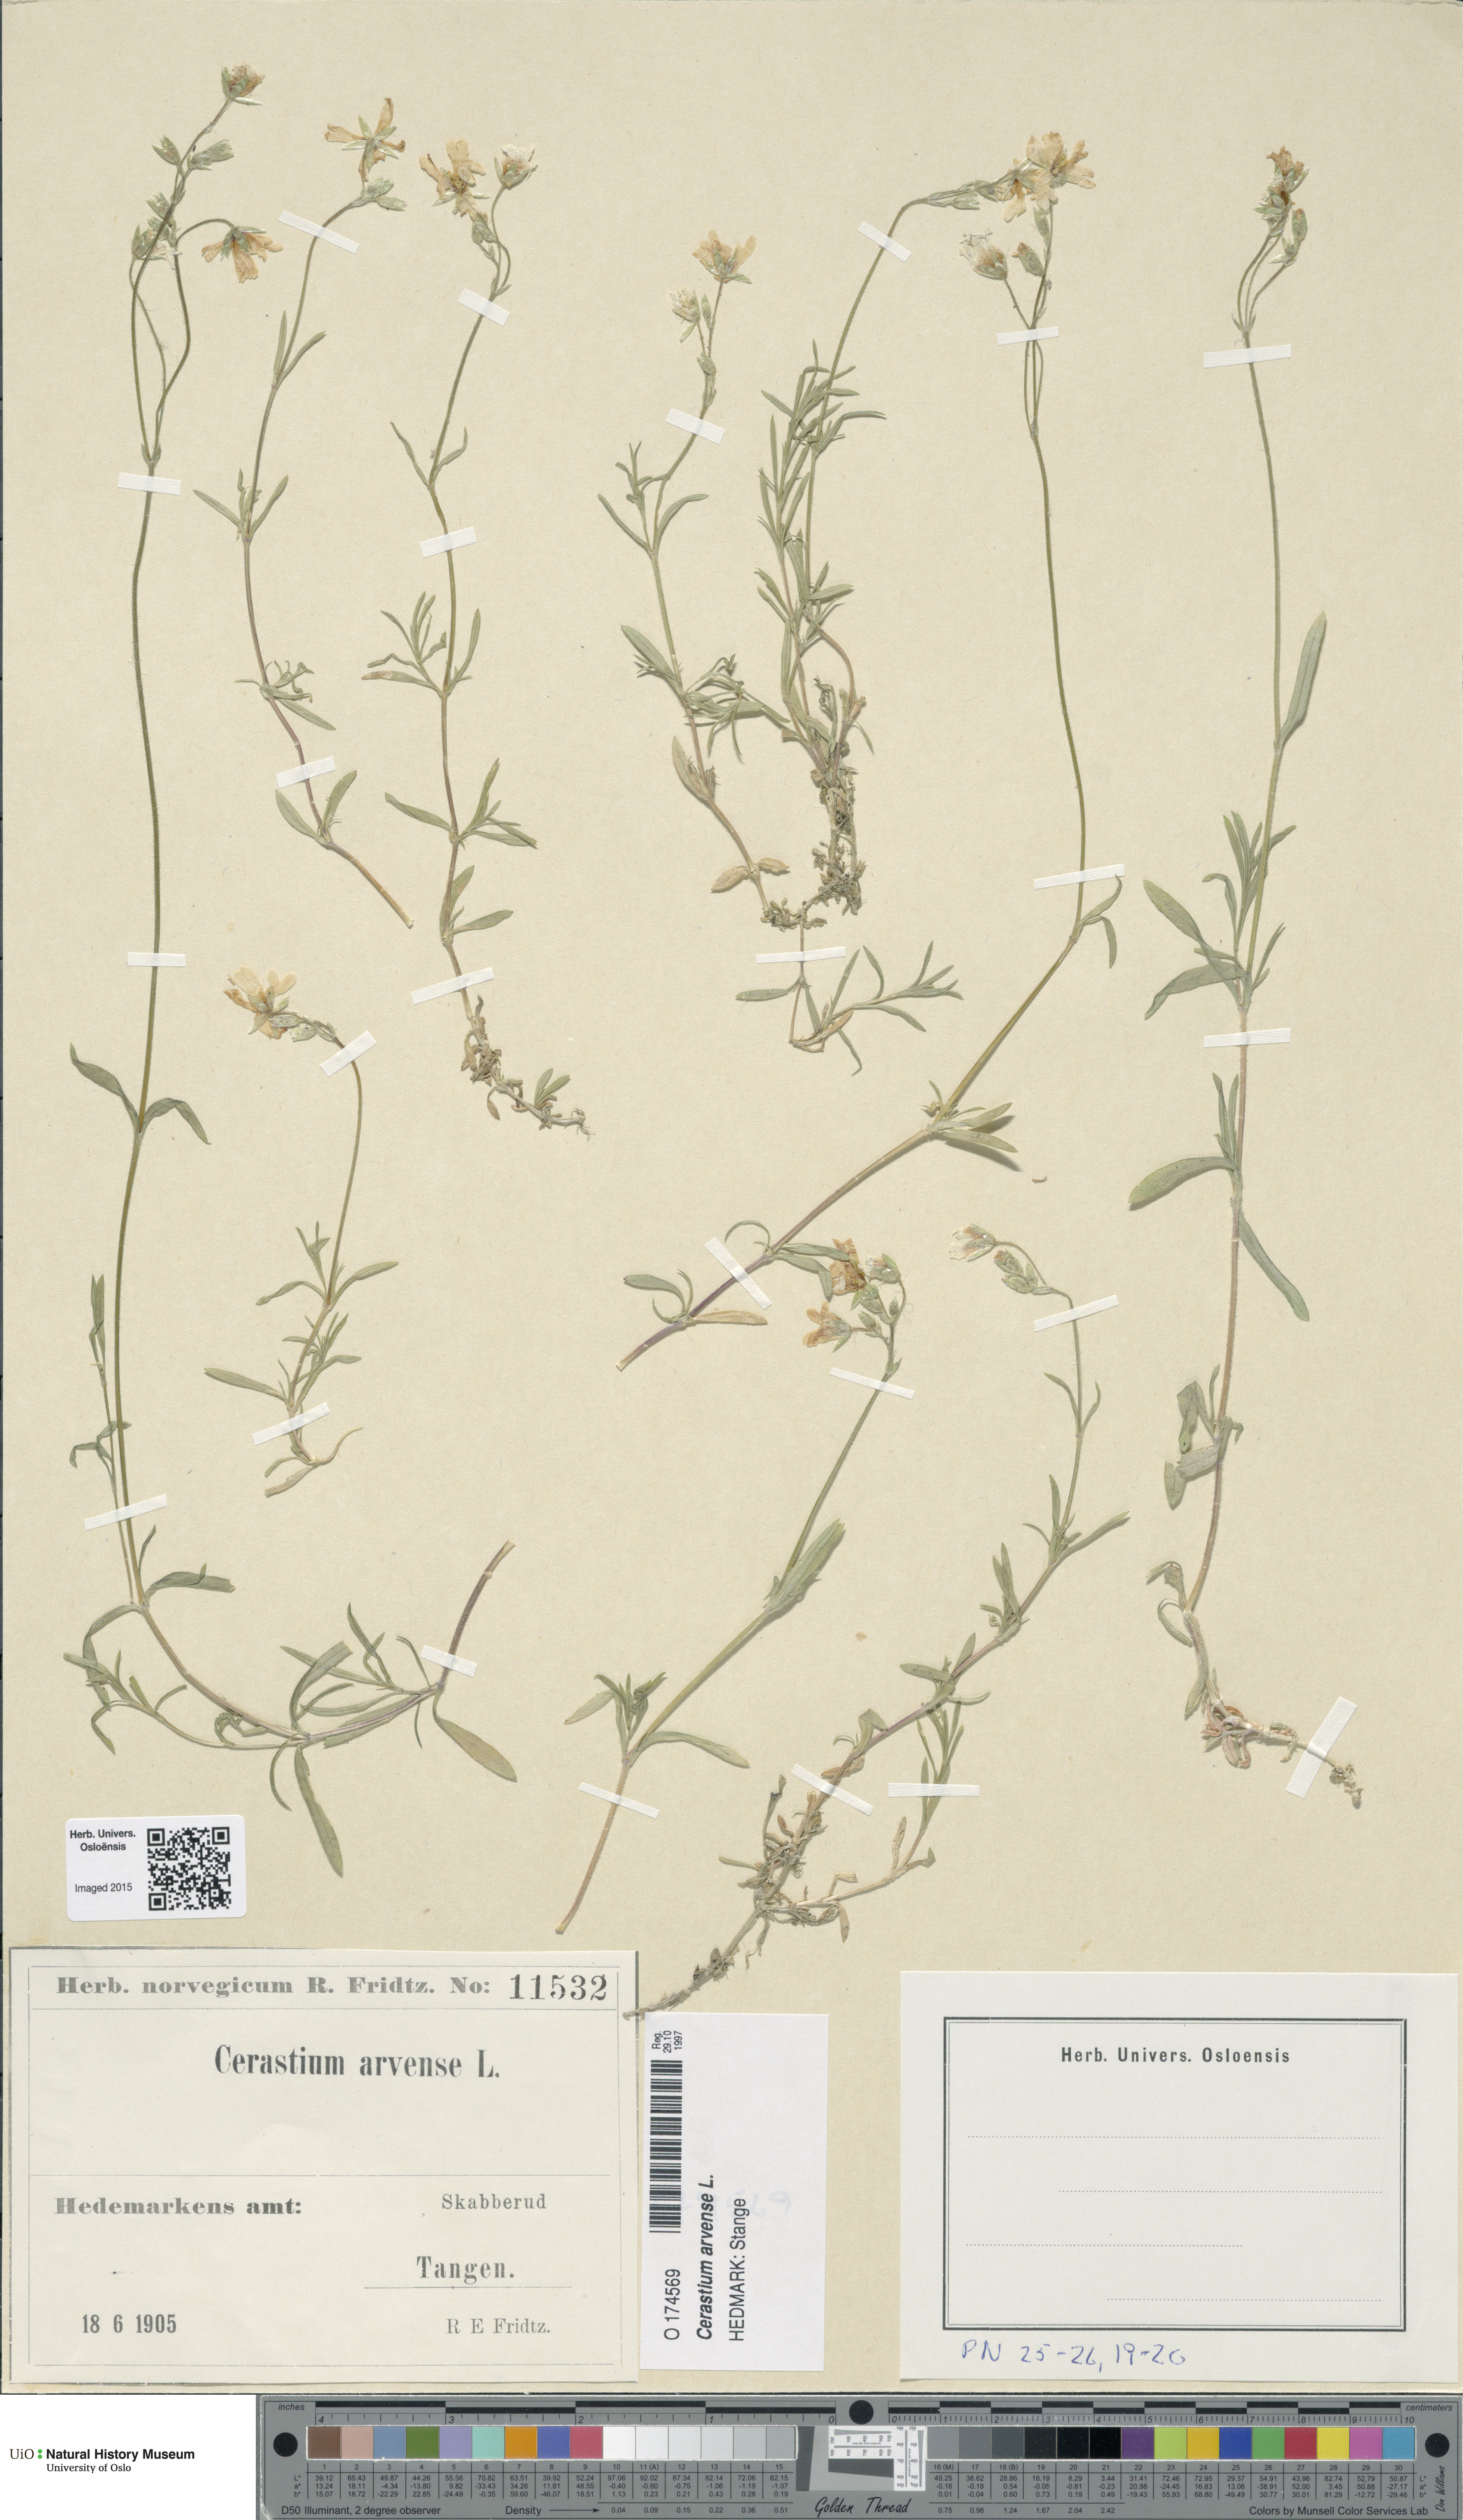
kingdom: Plantae
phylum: Tracheophyta
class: Magnoliopsida
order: Caryophyllales
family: Caryophyllaceae
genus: Cerastium
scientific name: Cerastium arvense
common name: Field mouse-ear
